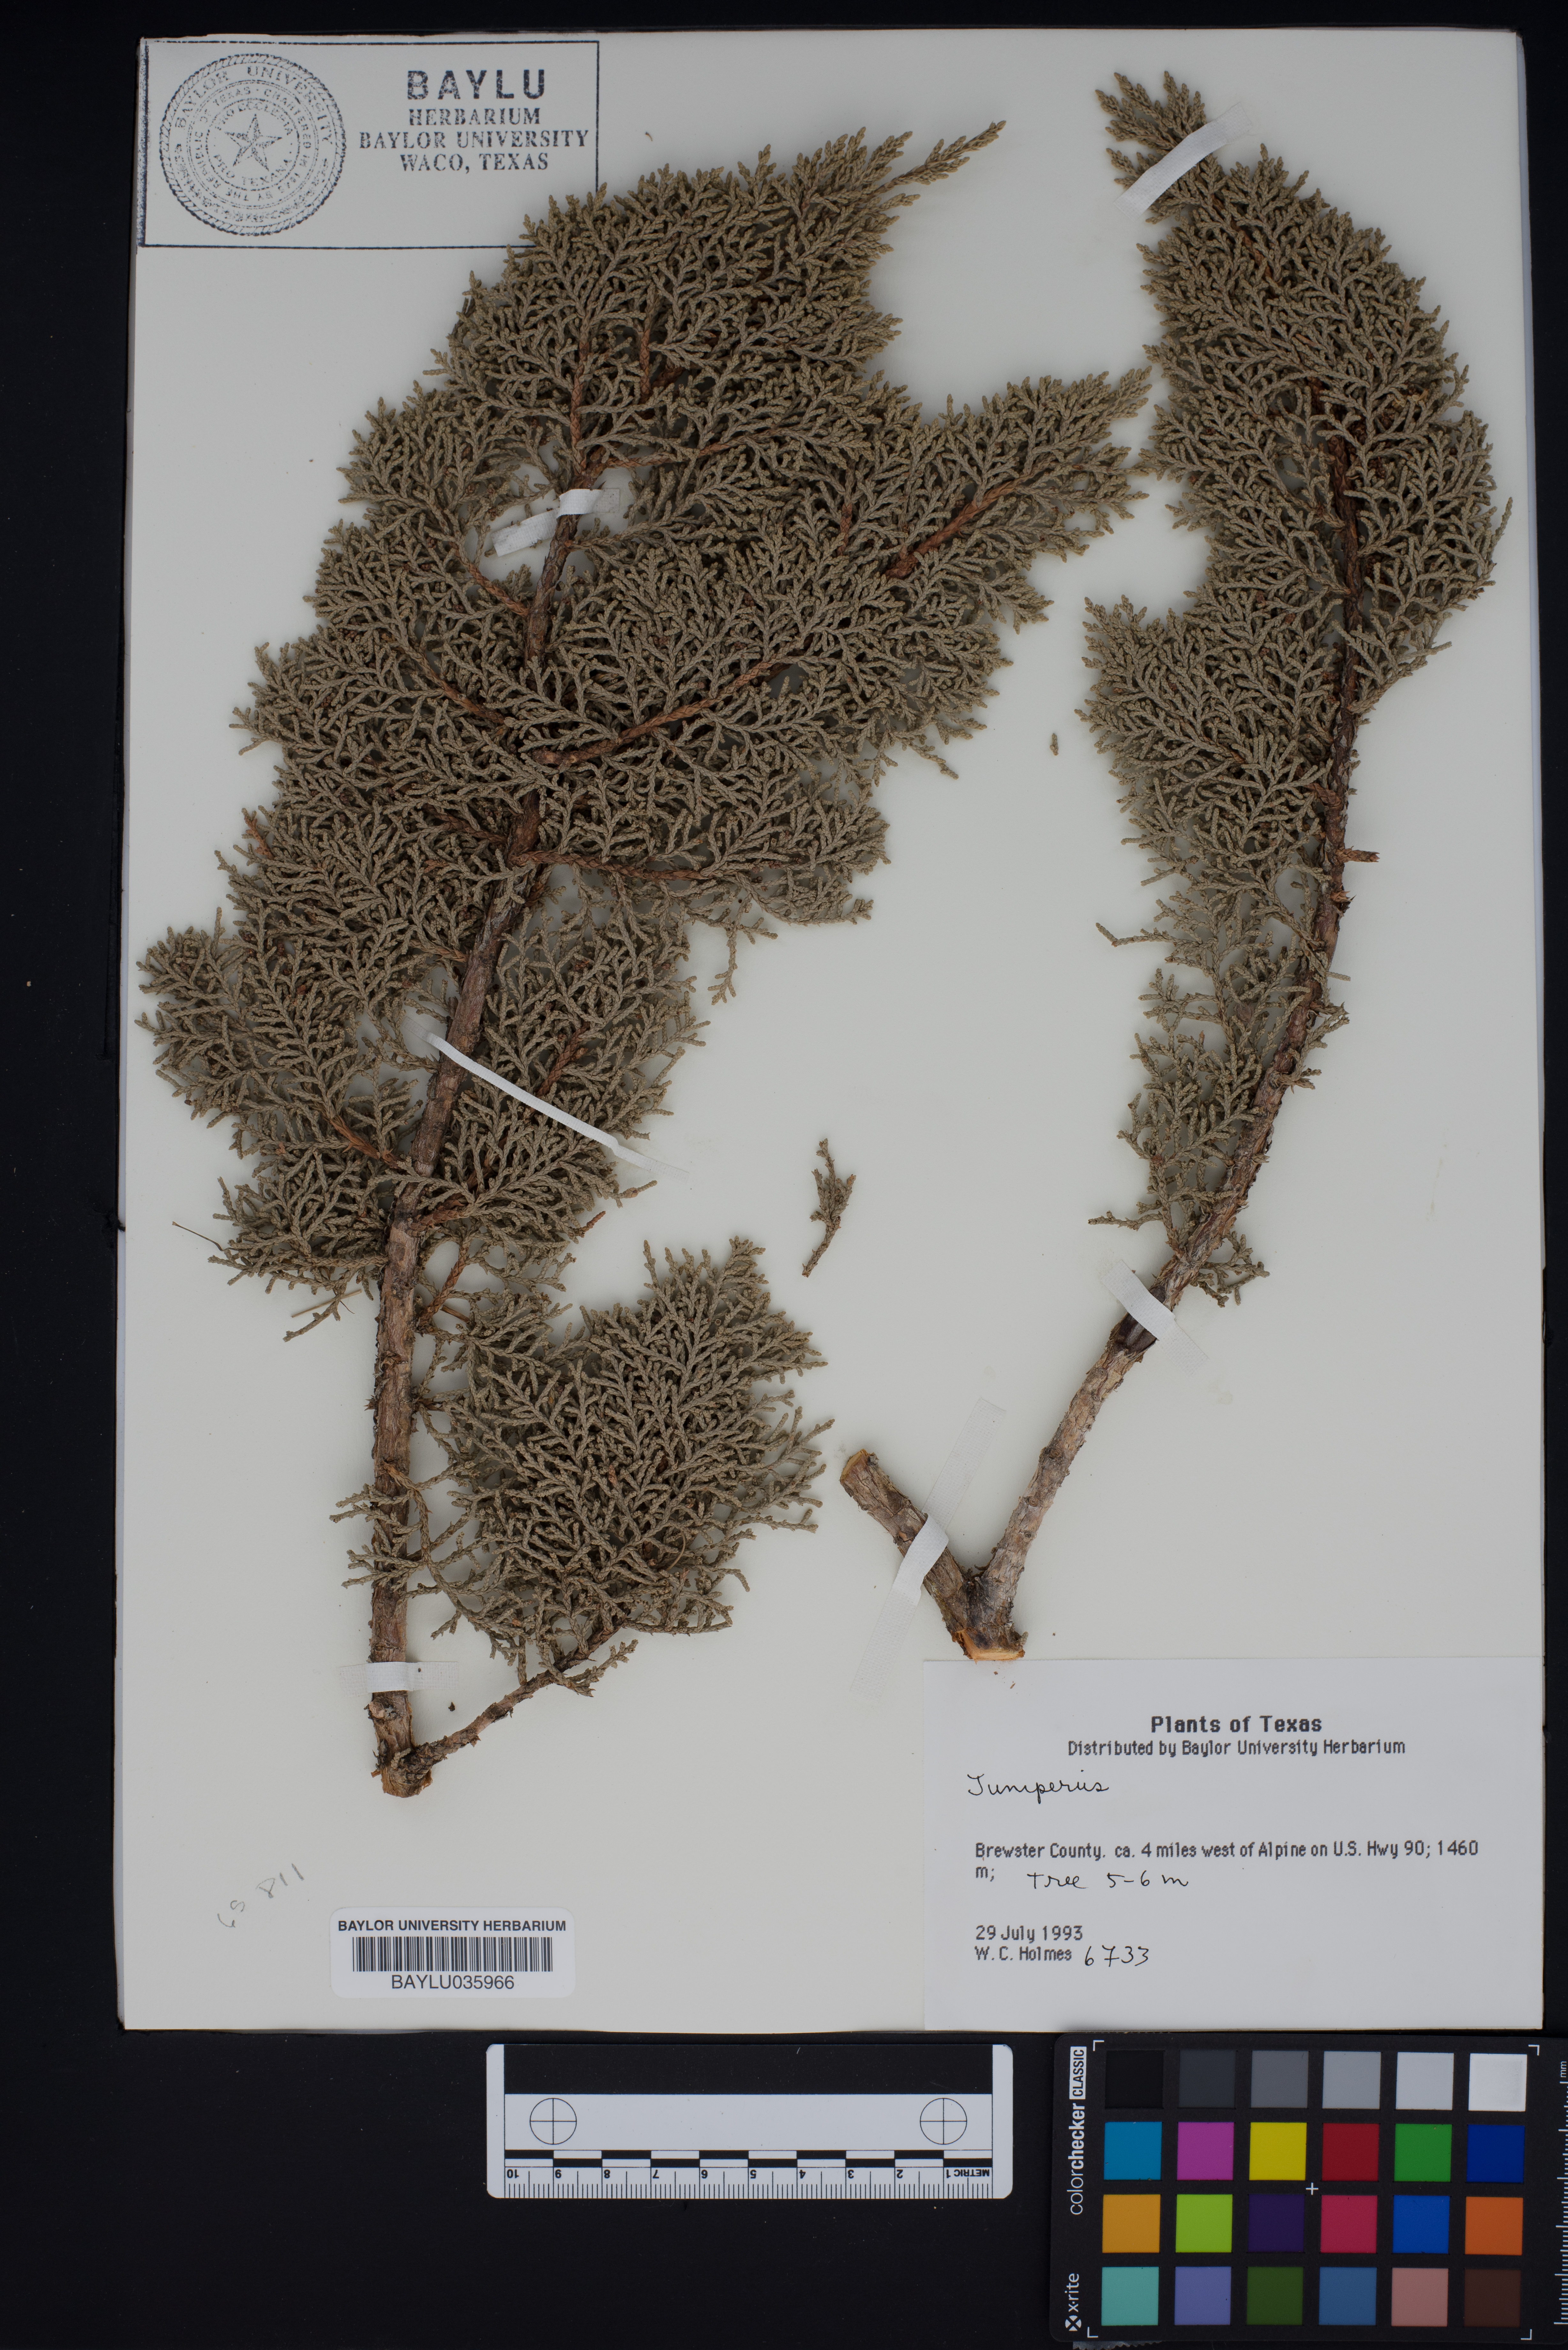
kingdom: Plantae
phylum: Tracheophyta
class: Pinopsida
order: Pinales
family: Cupressaceae
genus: Juniperus
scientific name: Juniperus
